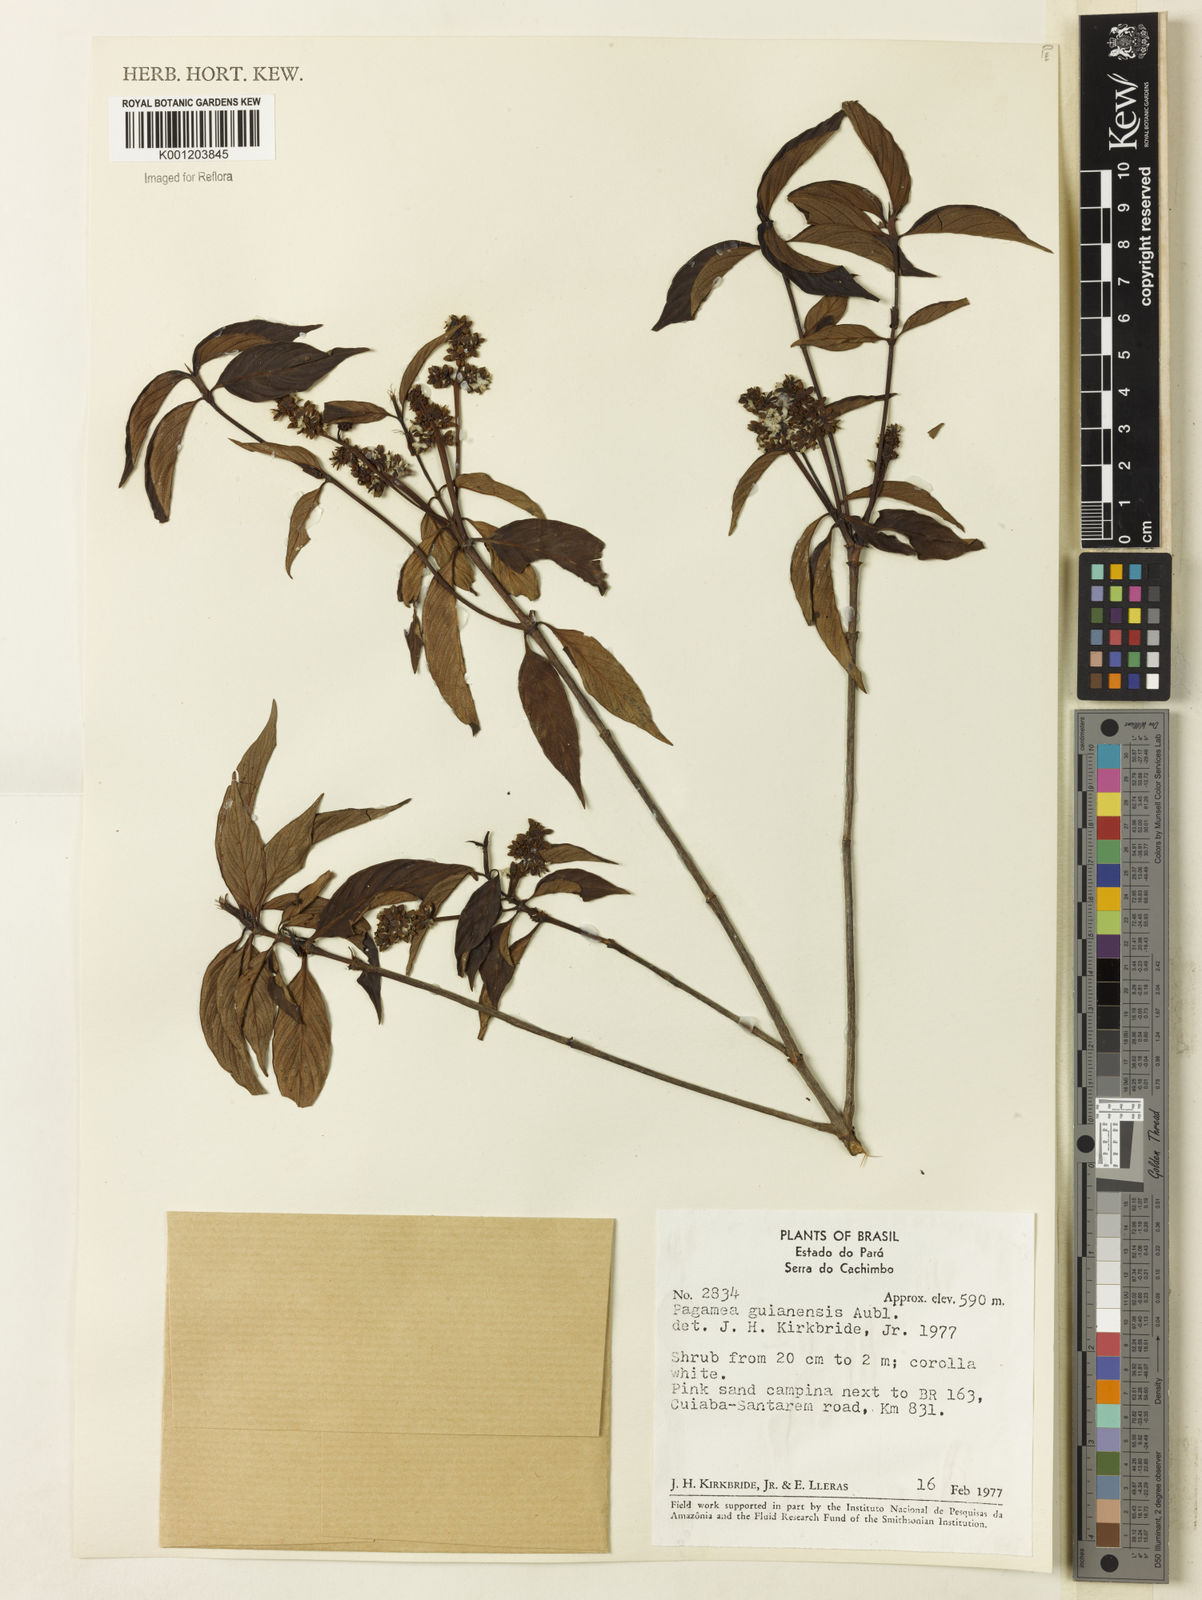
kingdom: Plantae
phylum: Tracheophyta
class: Magnoliopsida
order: Gentianales
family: Rubiaceae
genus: Pagamea
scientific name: Pagamea guianensis
